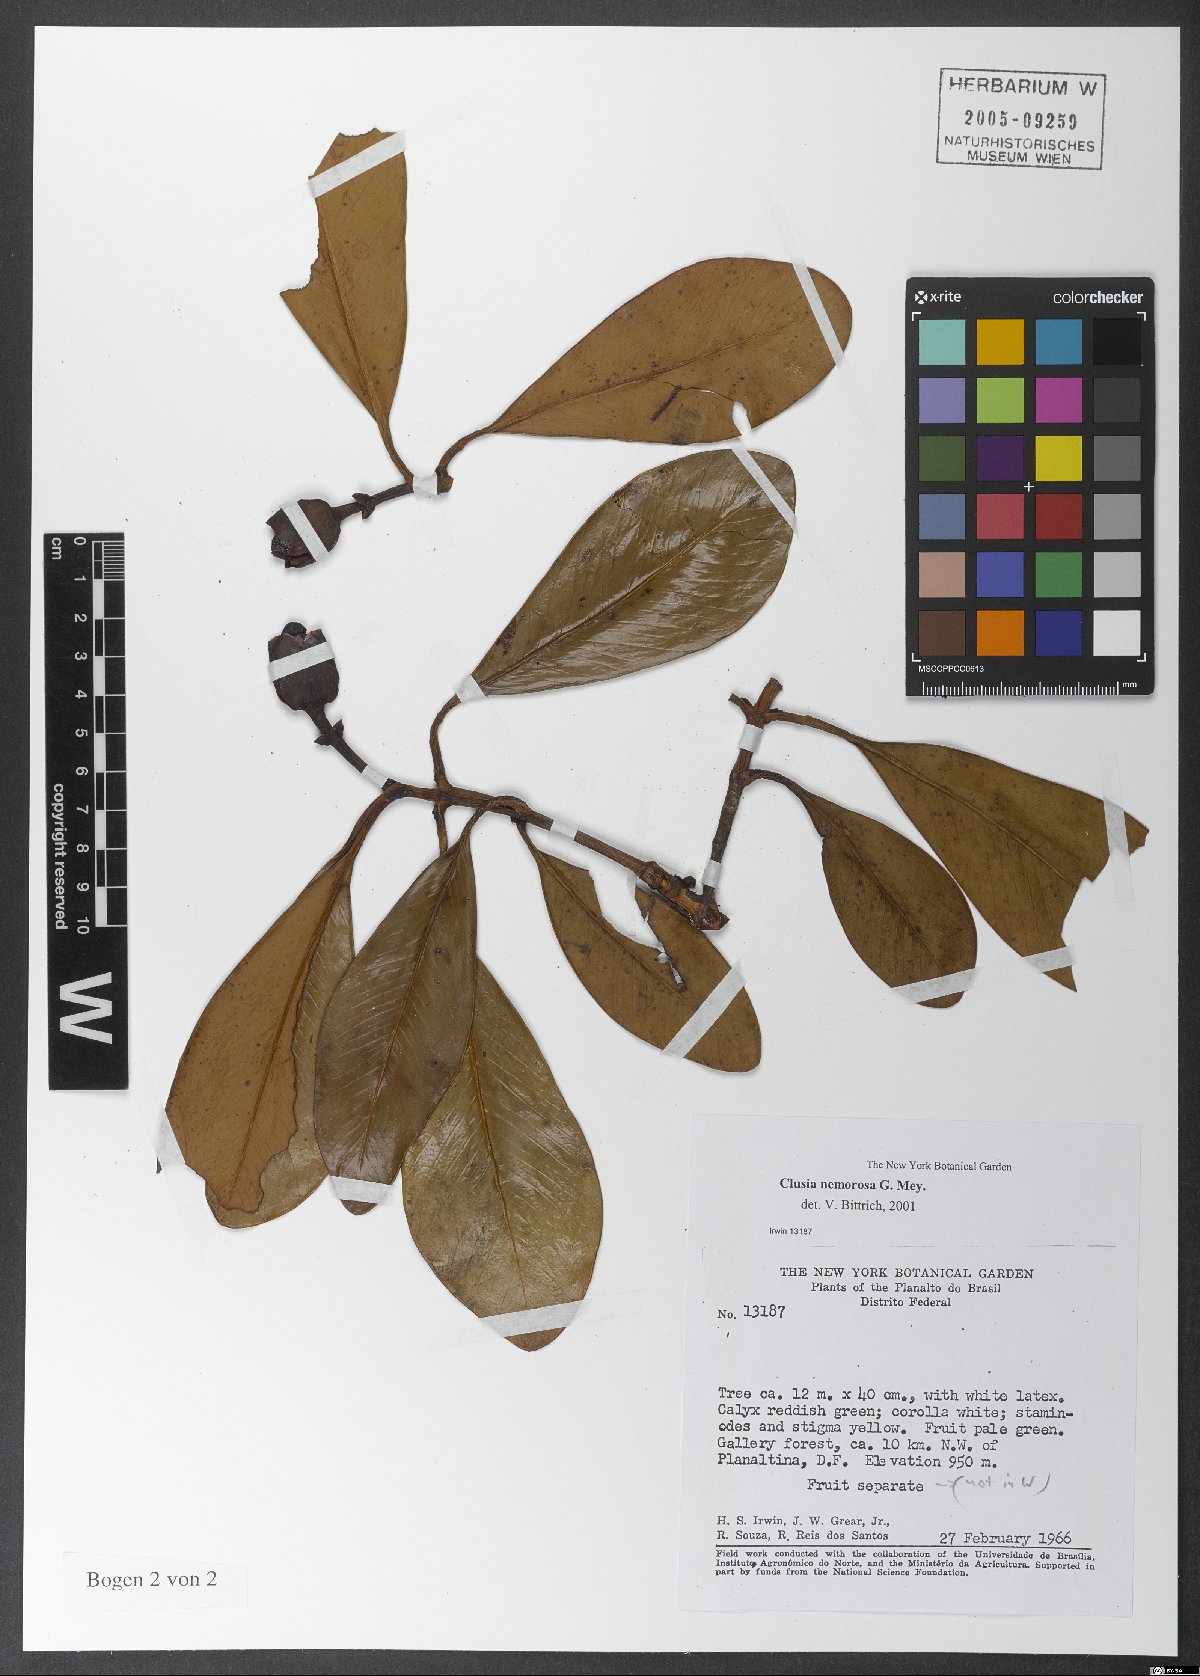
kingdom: Plantae
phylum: Tracheophyta
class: Magnoliopsida
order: Malpighiales
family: Clusiaceae
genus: Clusia
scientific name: Clusia nemorosa
